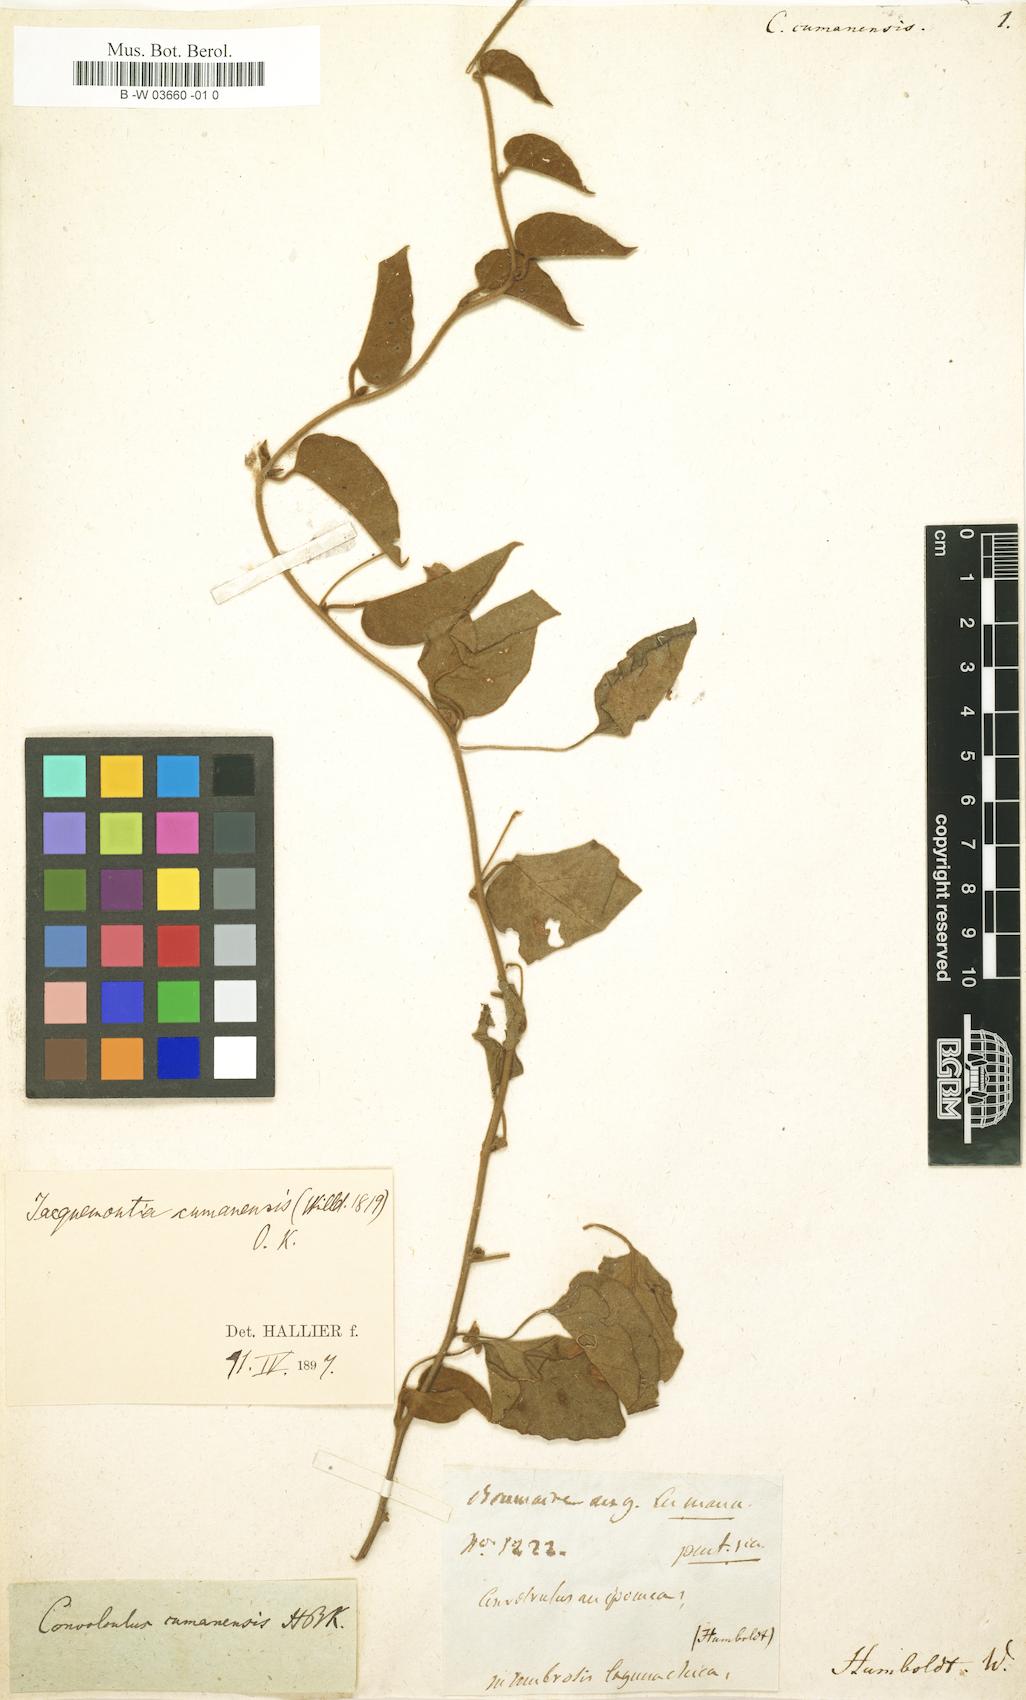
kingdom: Plantae
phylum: Tracheophyta
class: Magnoliopsida
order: Solanales
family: Convolvulaceae
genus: Convolvulus
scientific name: Convolvulus cumanensis
